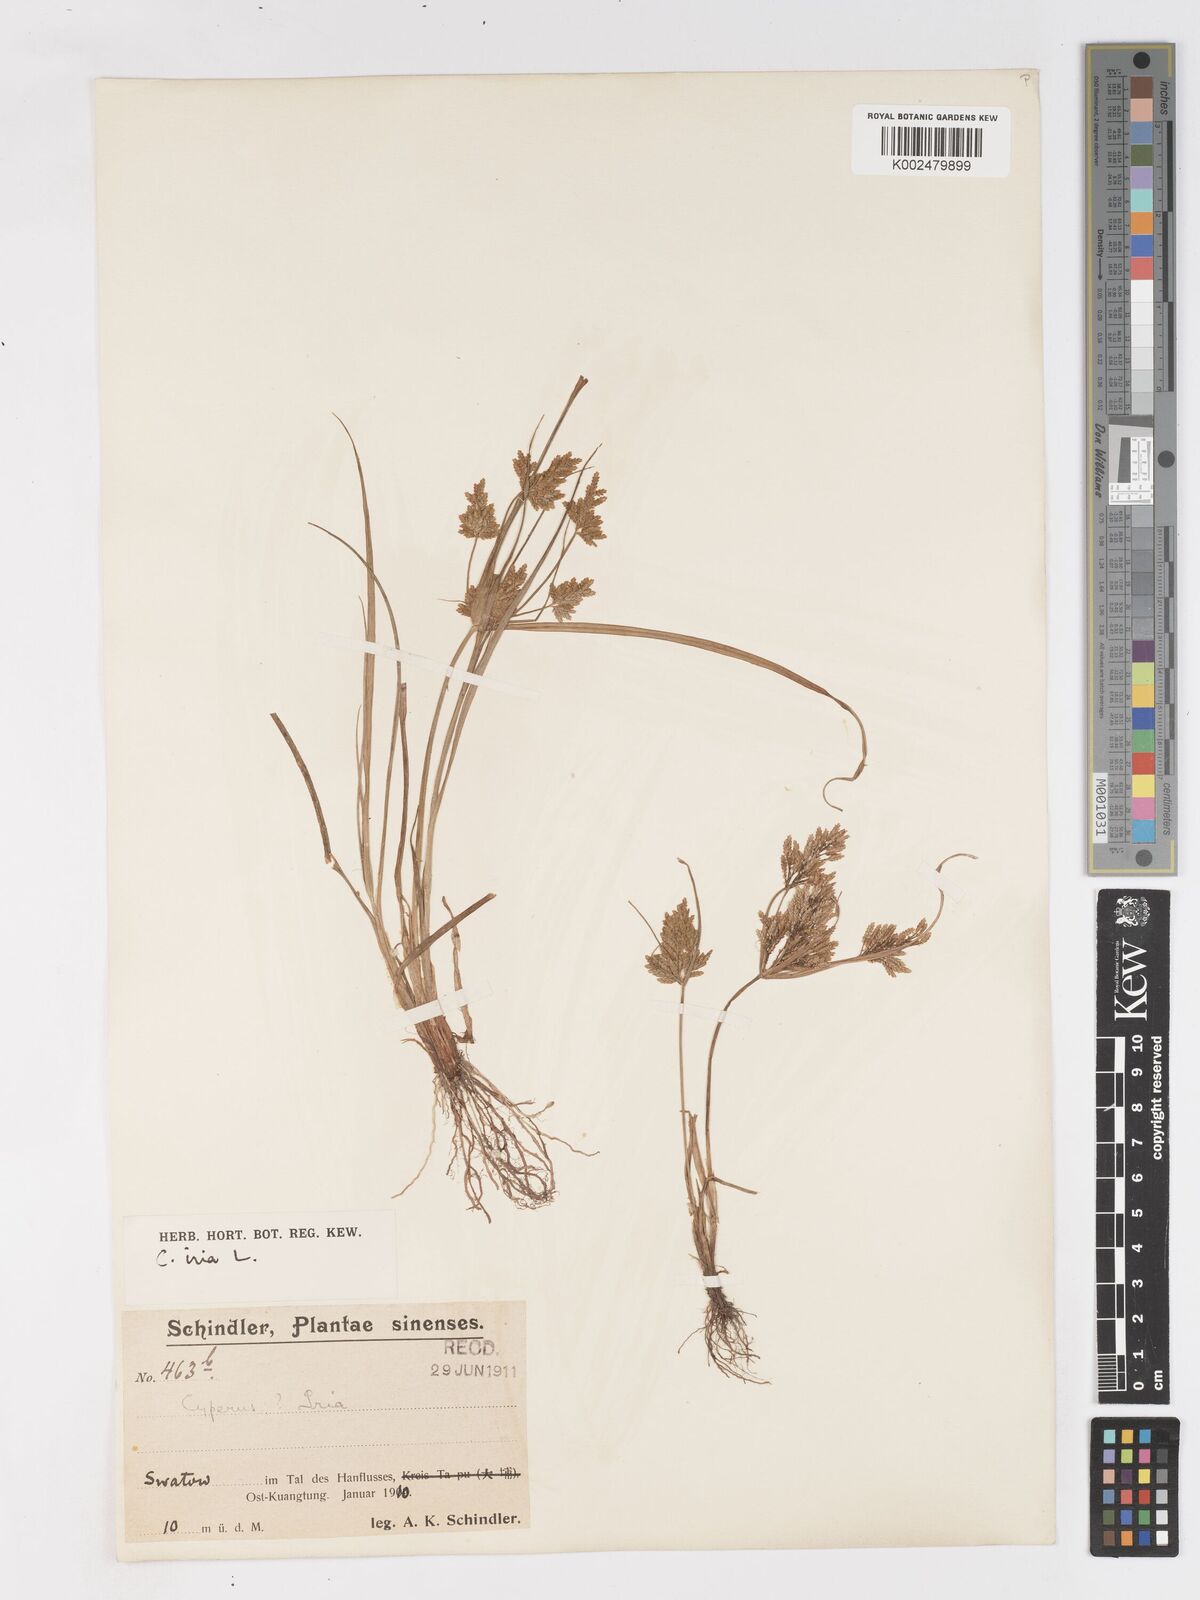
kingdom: Plantae
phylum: Tracheophyta
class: Liliopsida
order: Poales
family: Cyperaceae
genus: Cyperus
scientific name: Cyperus iria
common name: Ricefield flatsedge
